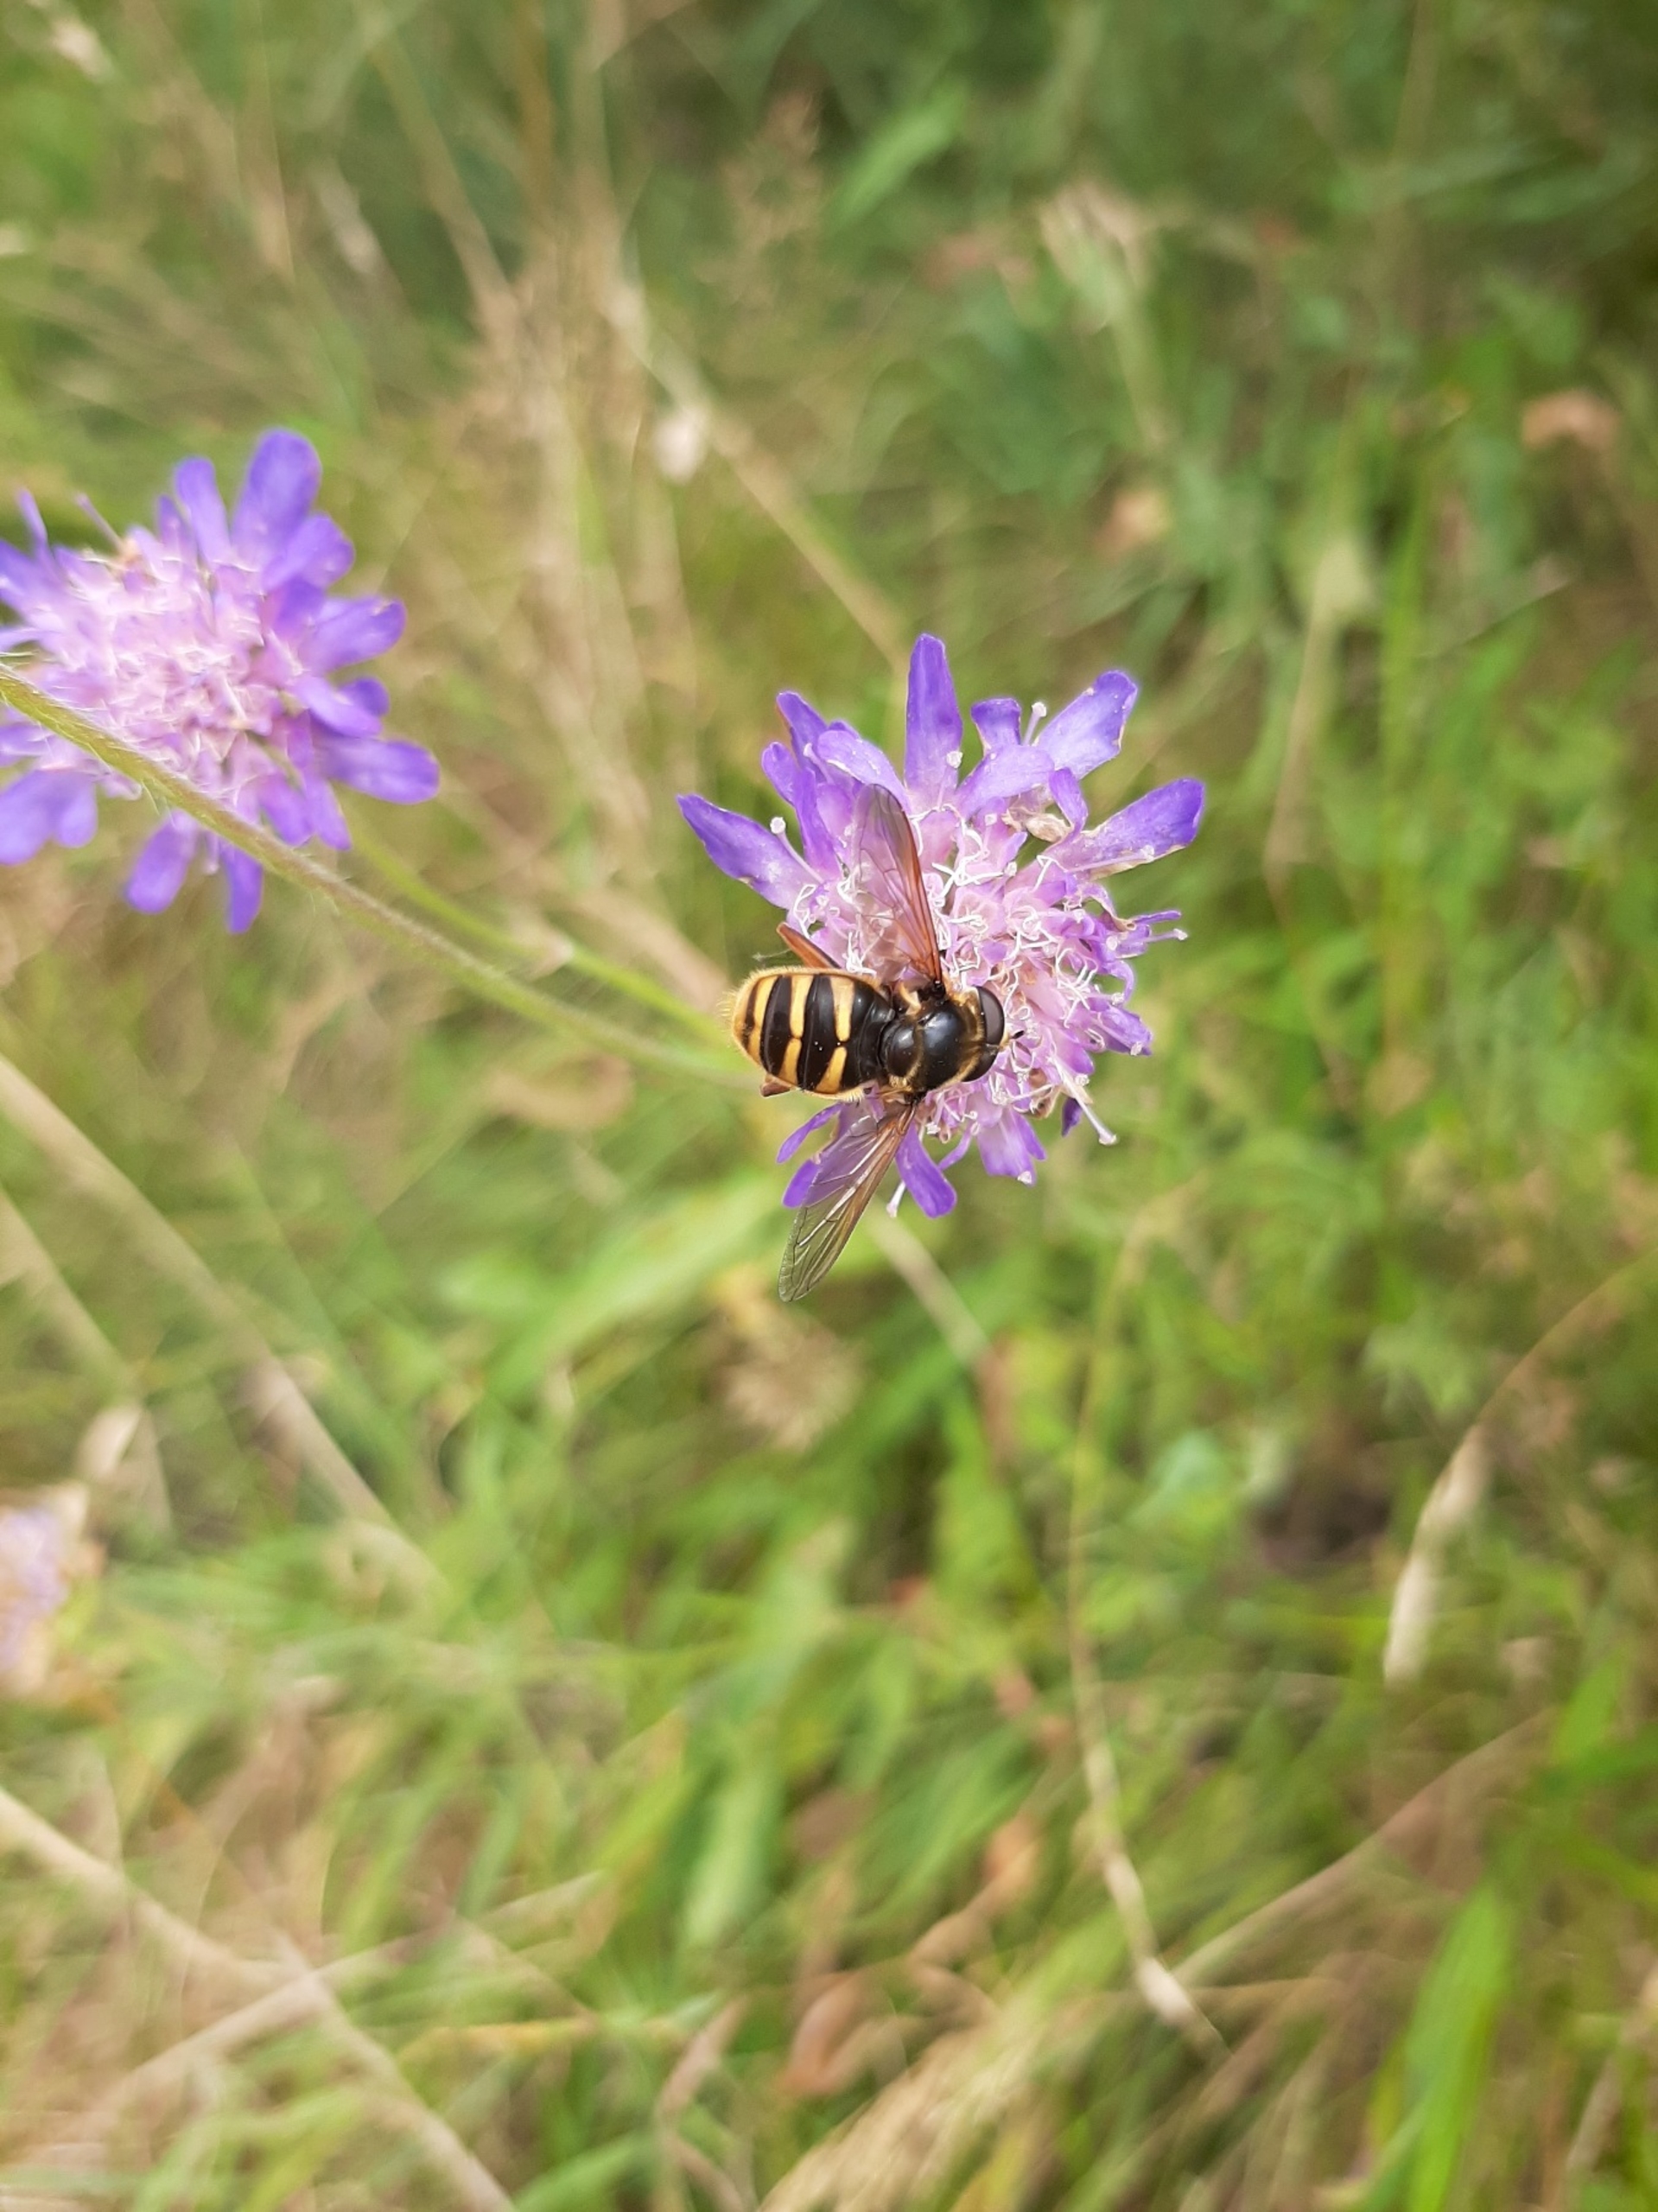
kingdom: Animalia
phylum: Arthropoda
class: Insecta
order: Diptera
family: Syrphidae
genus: Sericomyia
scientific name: Sericomyia silentis
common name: Tørve-silkesvirreflue
